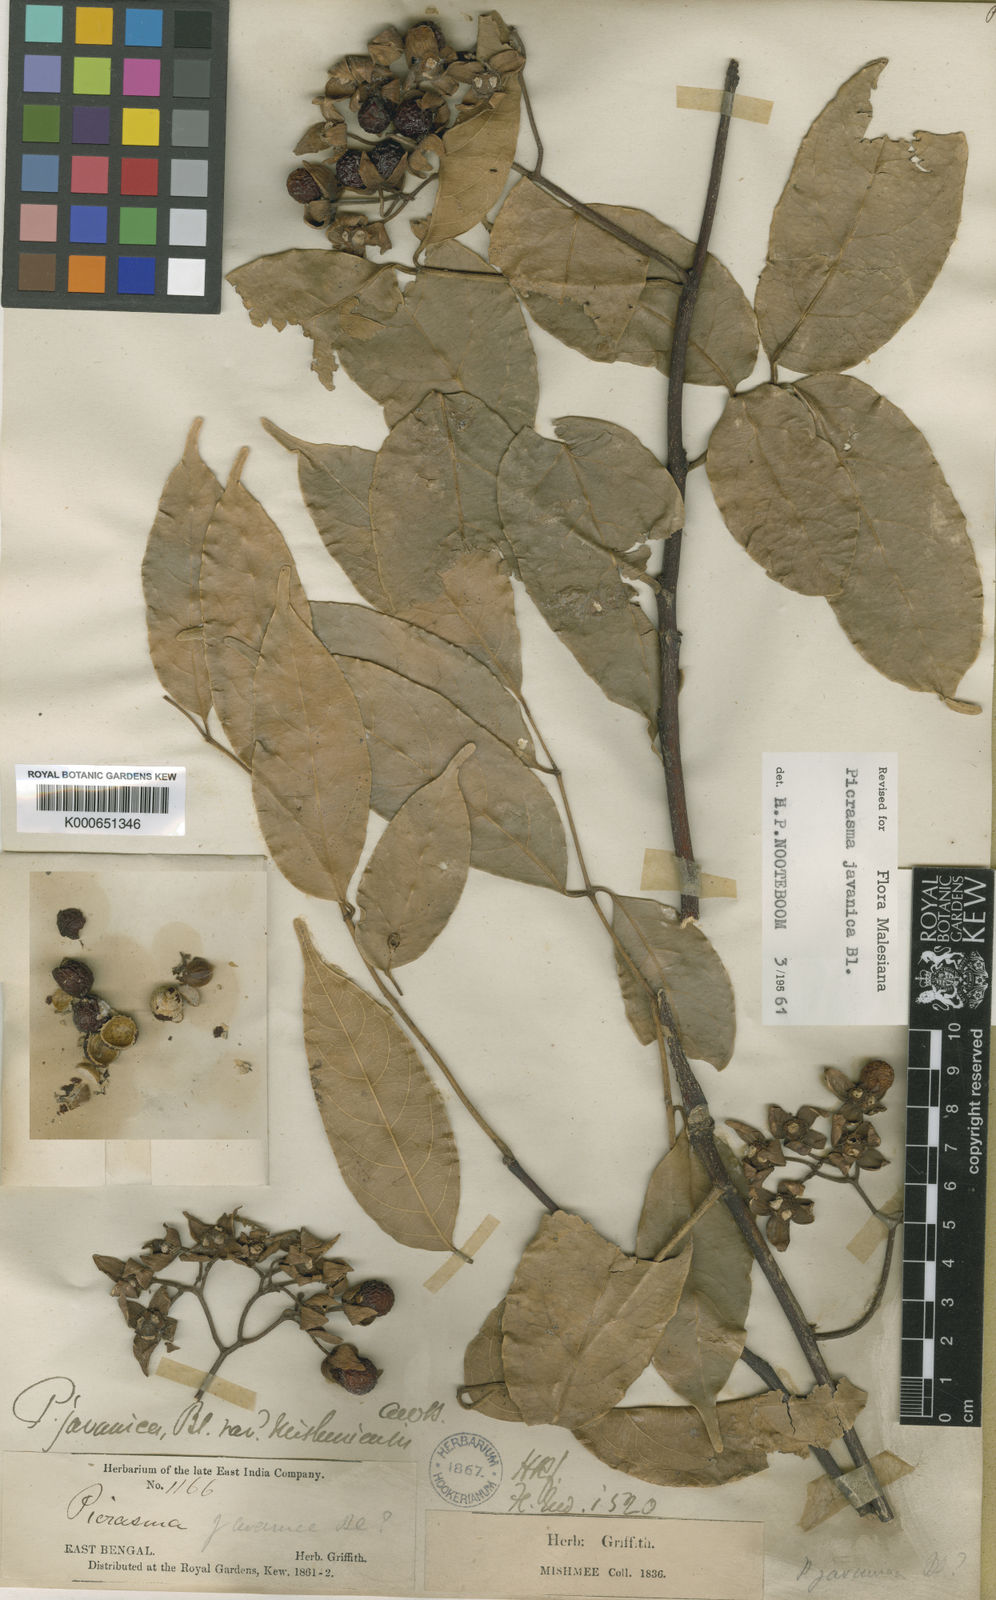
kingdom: Plantae
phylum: Tracheophyta
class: Magnoliopsida
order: Sapindales
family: Simaroubaceae
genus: Picrasma
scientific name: Picrasma javanica
